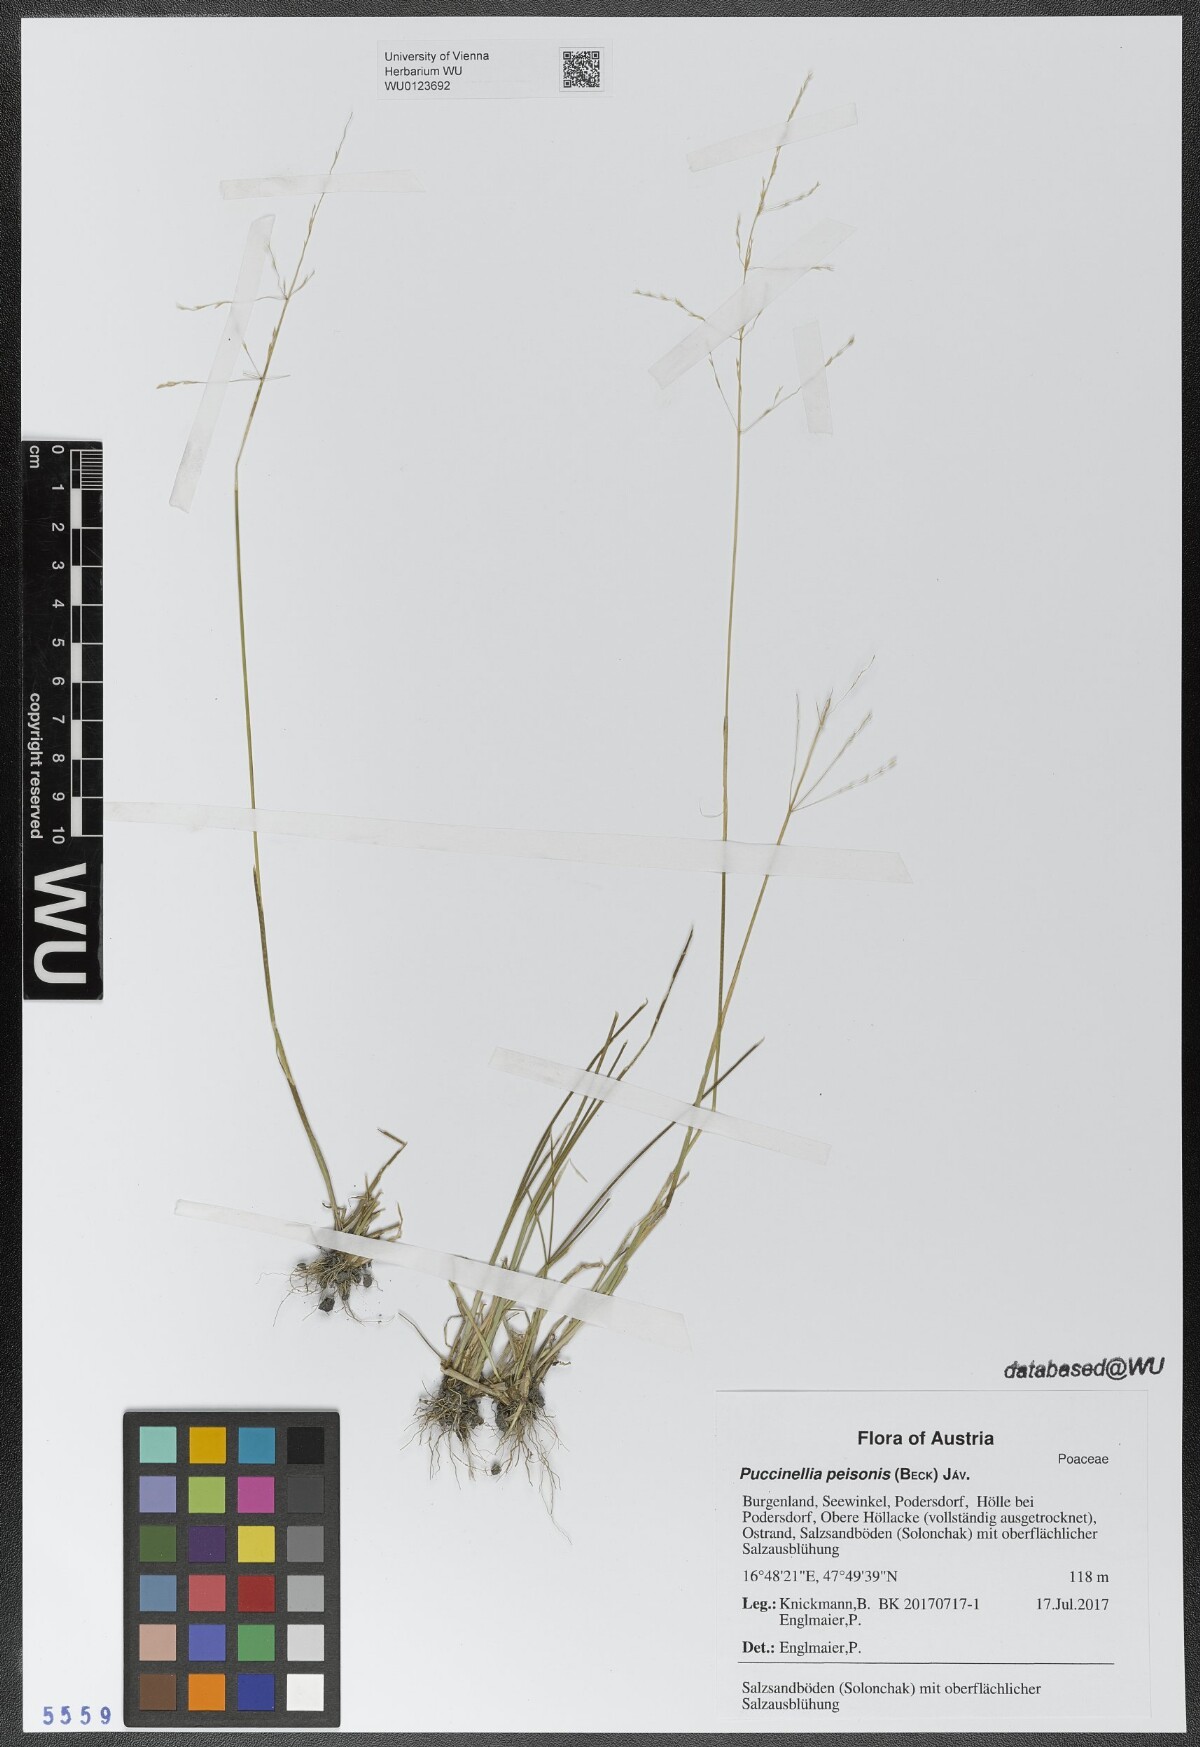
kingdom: Plantae
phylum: Tracheophyta
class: Liliopsida
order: Poales
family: Poaceae
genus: Puccinellia
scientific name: Puccinellia intermedia
